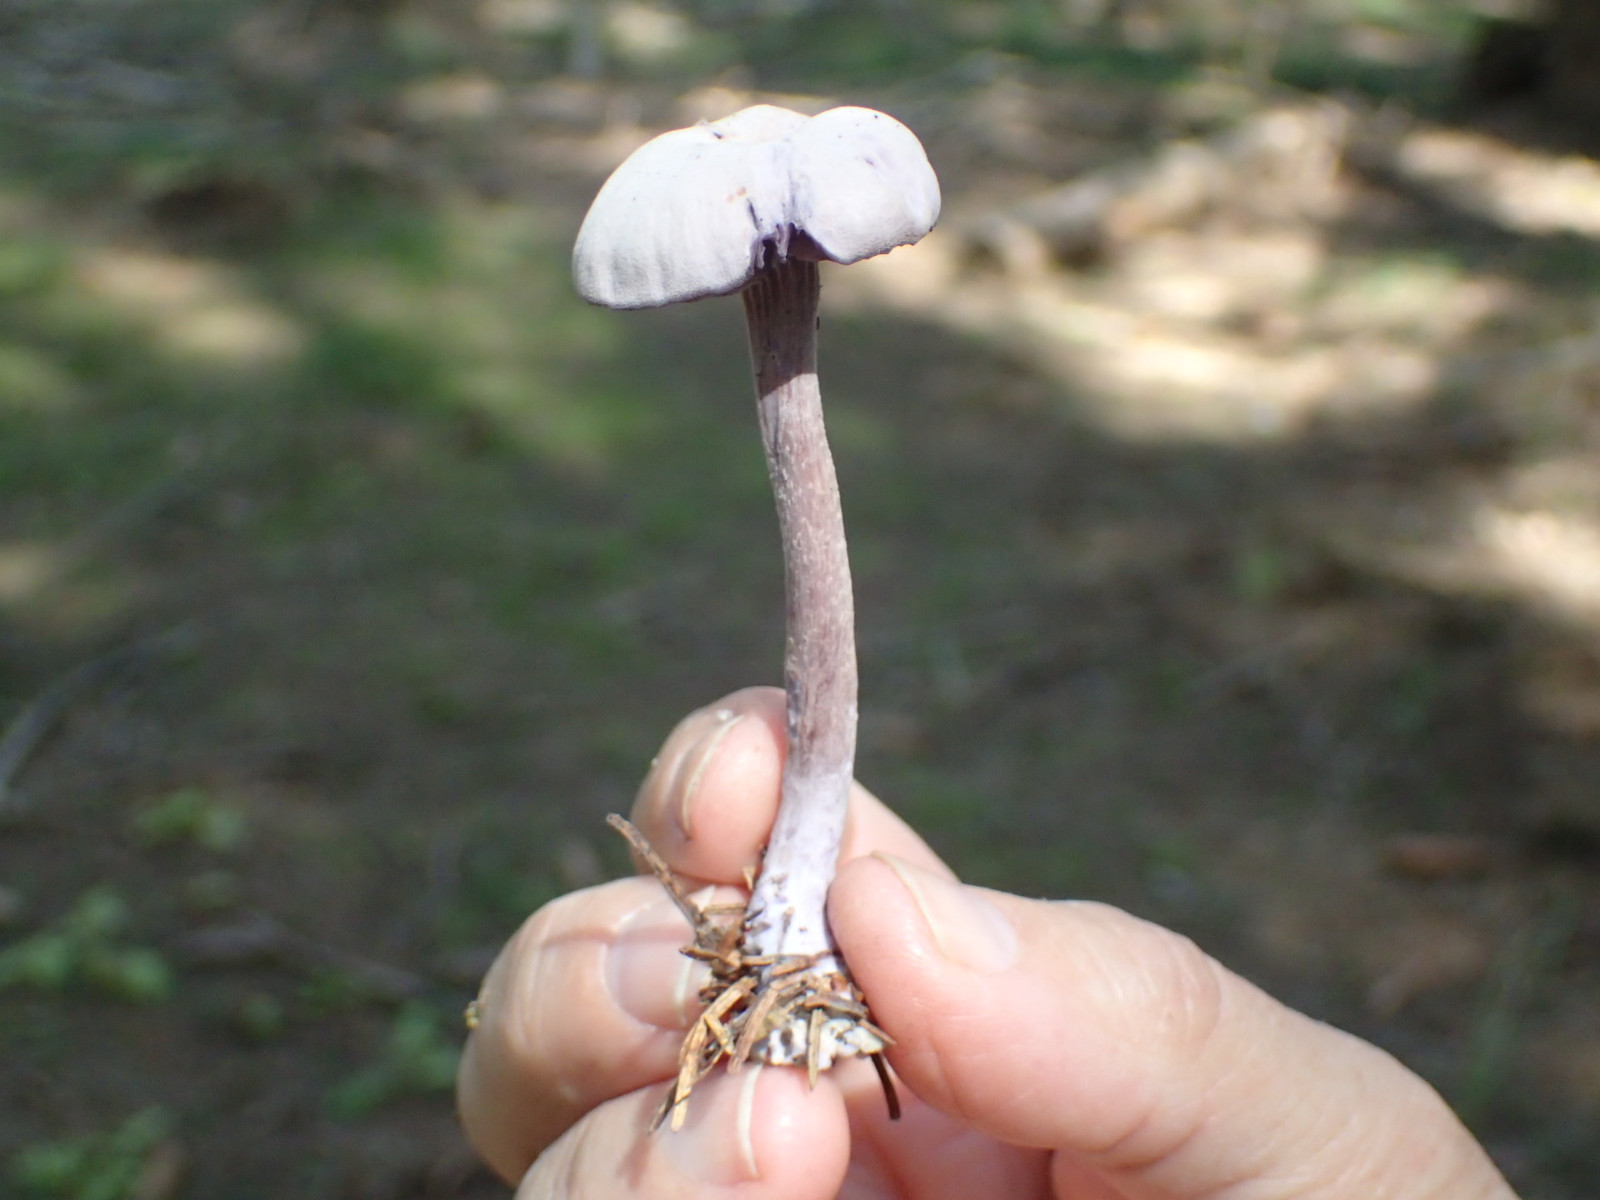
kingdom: Fungi
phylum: Basidiomycota
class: Agaricomycetes
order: Agaricales
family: Hydnangiaceae
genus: Laccaria
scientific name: Laccaria amethystina
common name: violet ametysthat
